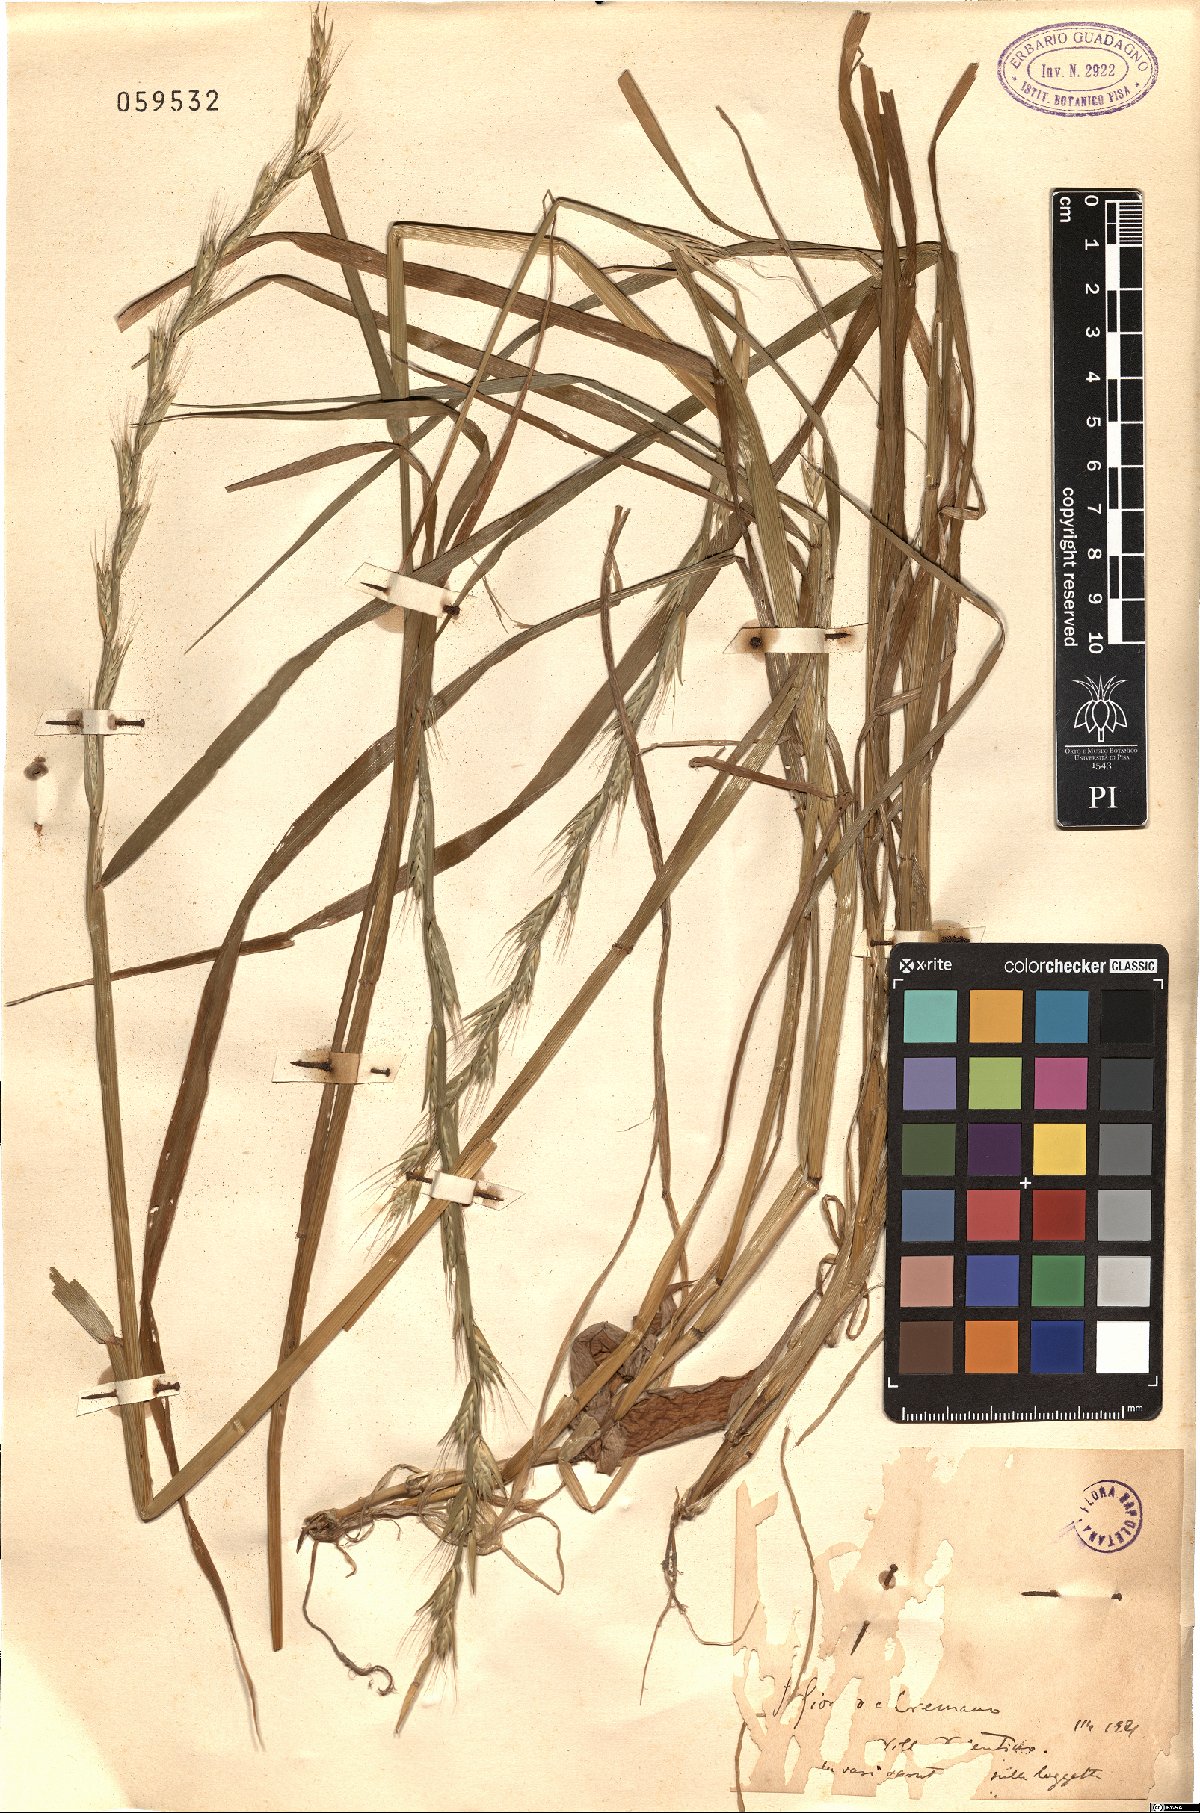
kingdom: Plantae
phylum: Tracheophyta
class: Liliopsida
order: Poales
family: Poaceae
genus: Lolium
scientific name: Lolium multiflorum
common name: Annual ryegrass
